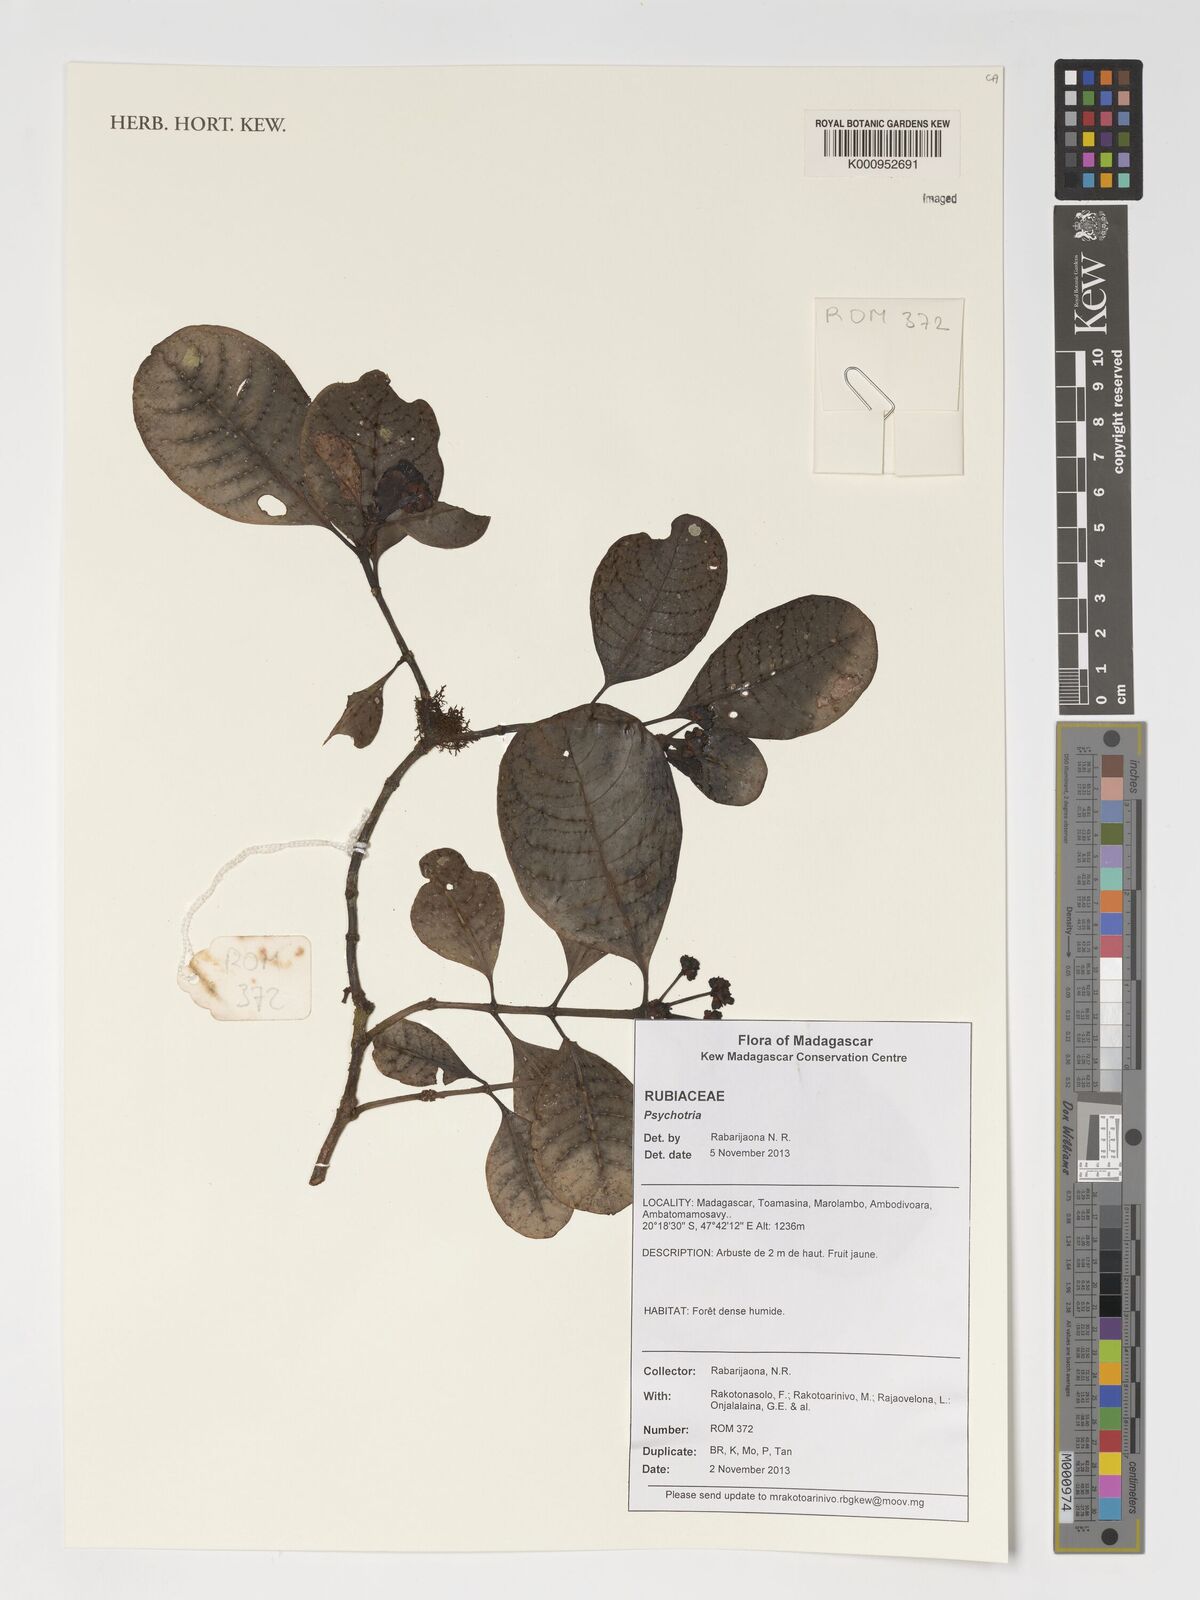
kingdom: Plantae
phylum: Tracheophyta
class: Magnoliopsida
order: Gentianales
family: Rubiaceae
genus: Psychotria
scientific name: Psychotria
